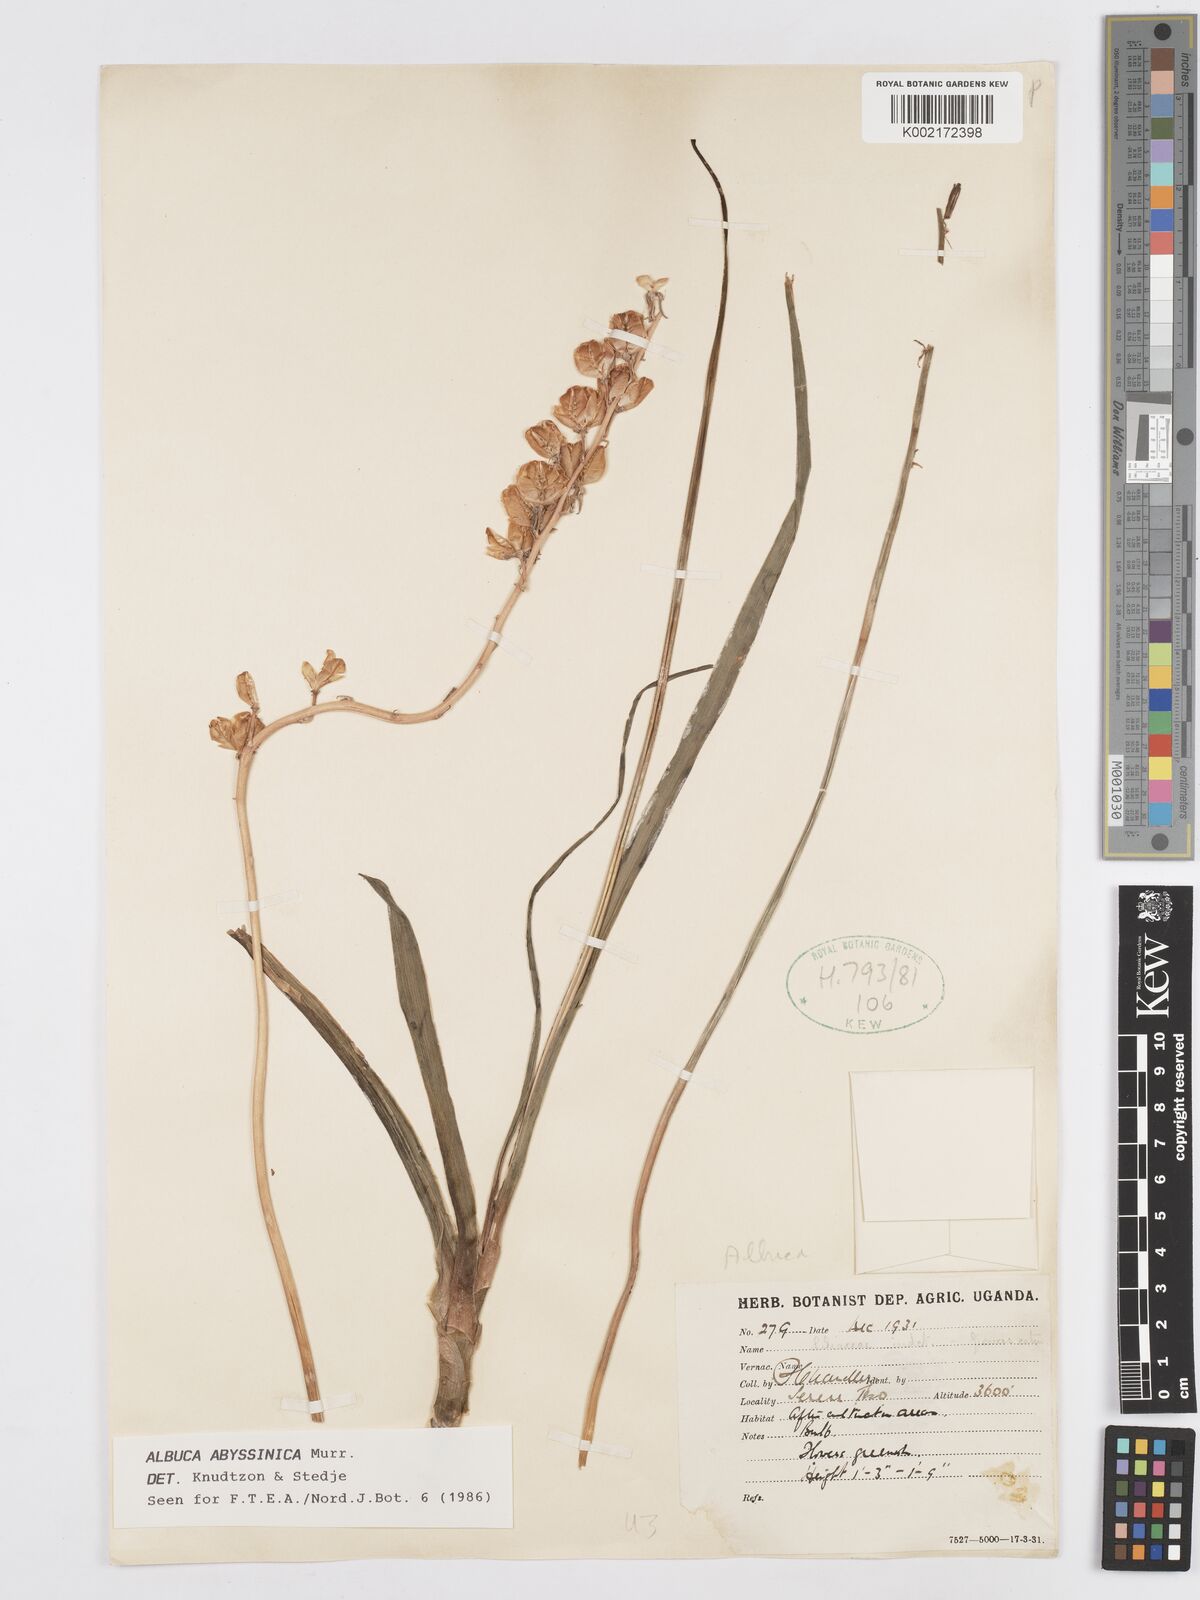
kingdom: Plantae
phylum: Tracheophyta
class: Liliopsida
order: Asparagales
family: Asparagaceae
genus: Albuca
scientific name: Albuca abyssinica
